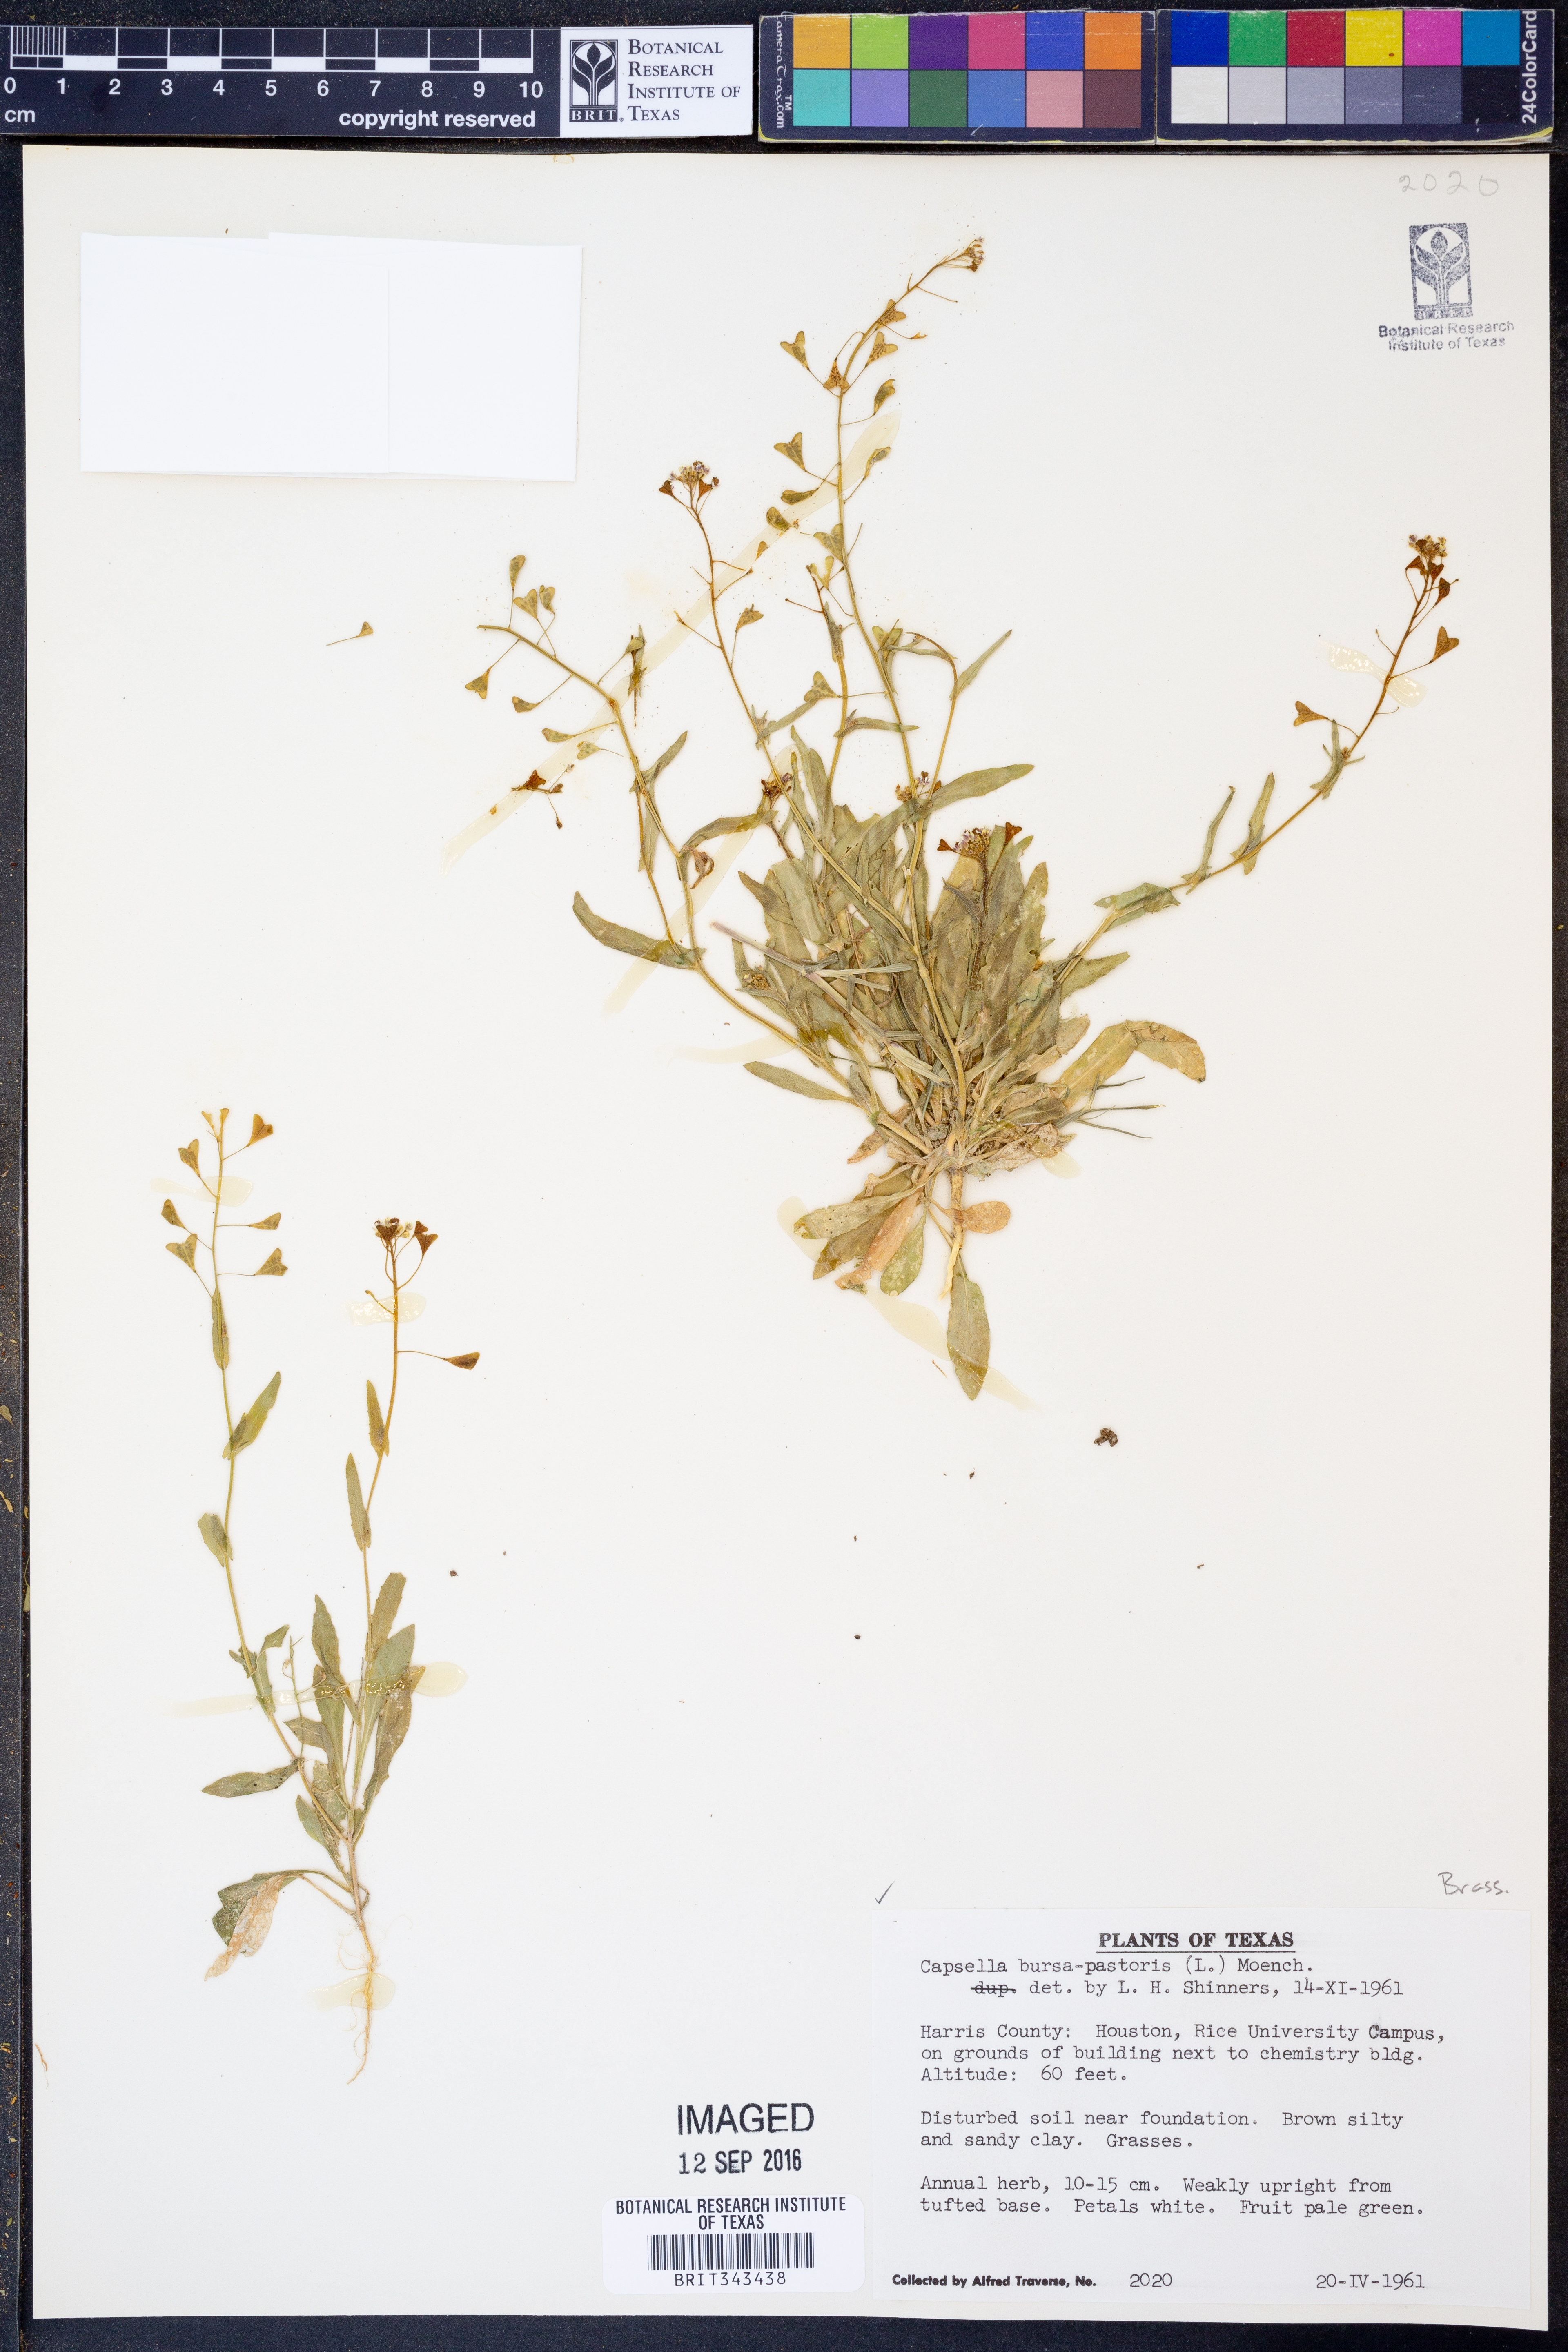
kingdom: Plantae
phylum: Tracheophyta
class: Magnoliopsida
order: Brassicales
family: Brassicaceae
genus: Capsella
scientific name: Capsella bursa-pastoris
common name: Shepherd's purse
